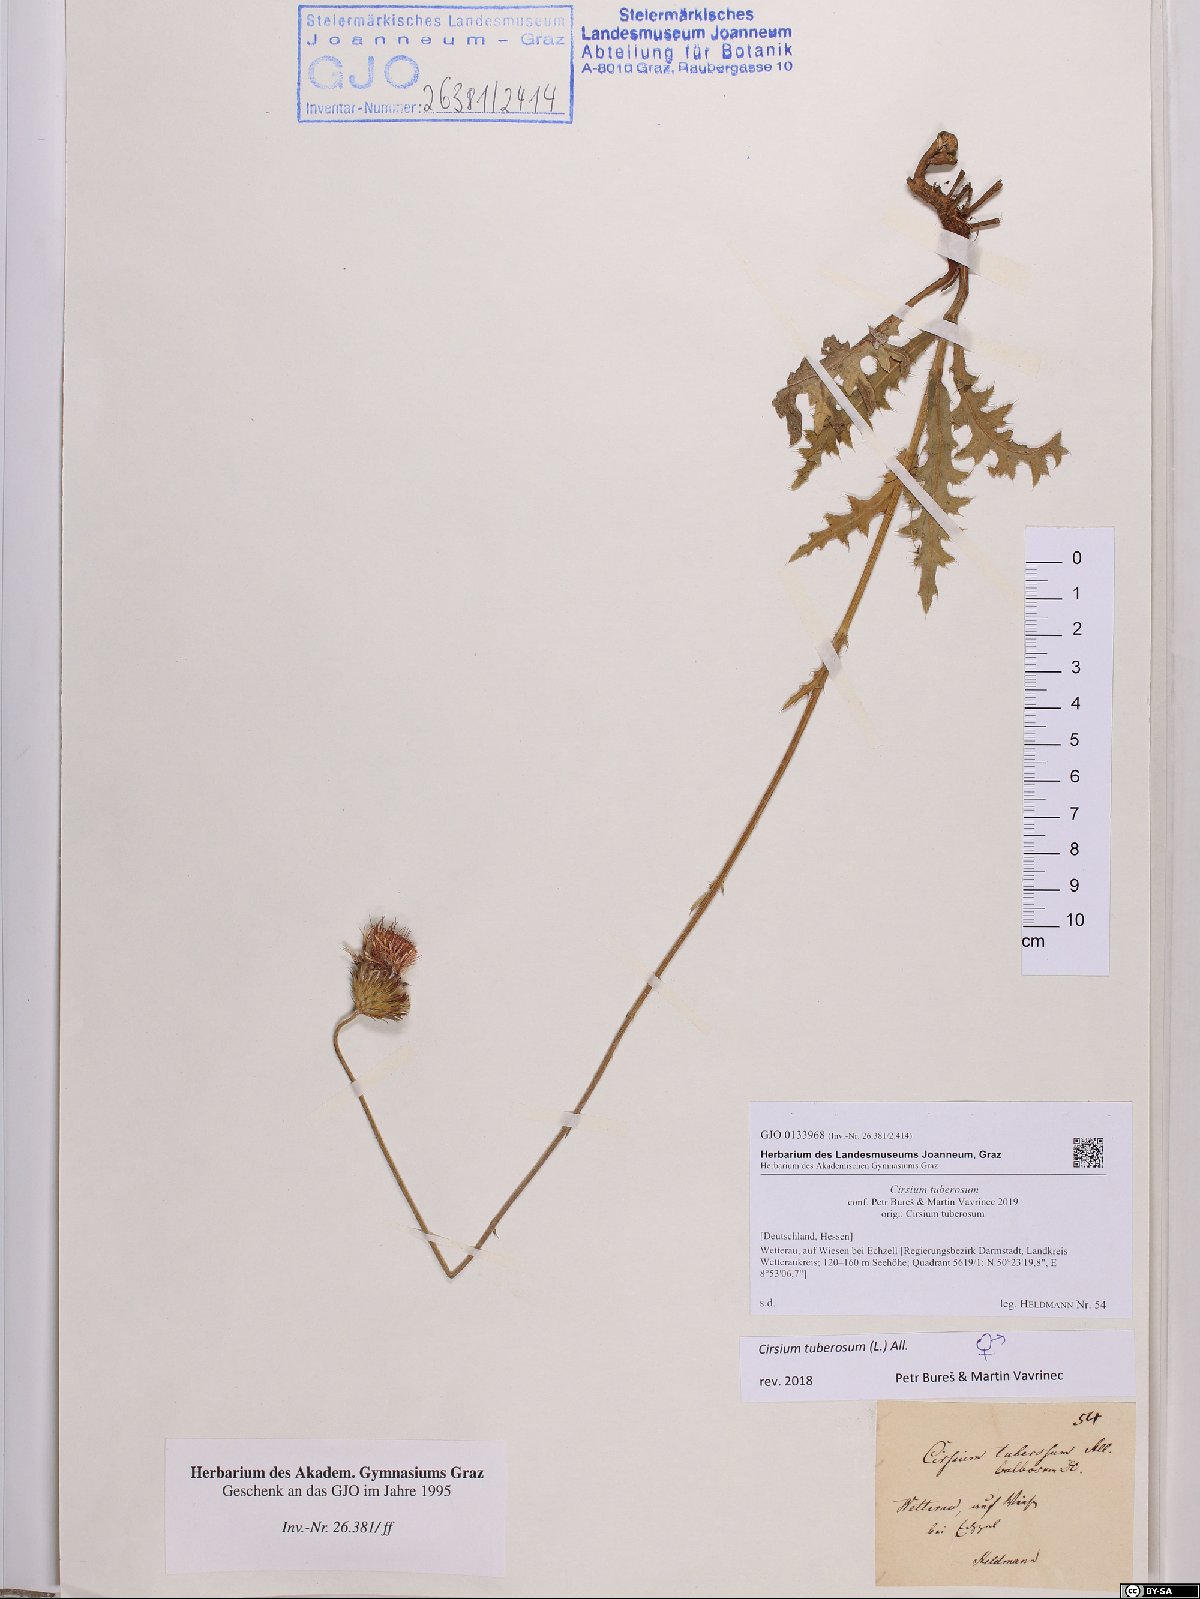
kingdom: Plantae
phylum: Tracheophyta
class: Magnoliopsida
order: Asterales
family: Asteraceae
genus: Cirsium
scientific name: Cirsium tuberosum
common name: Tuberous thistle
